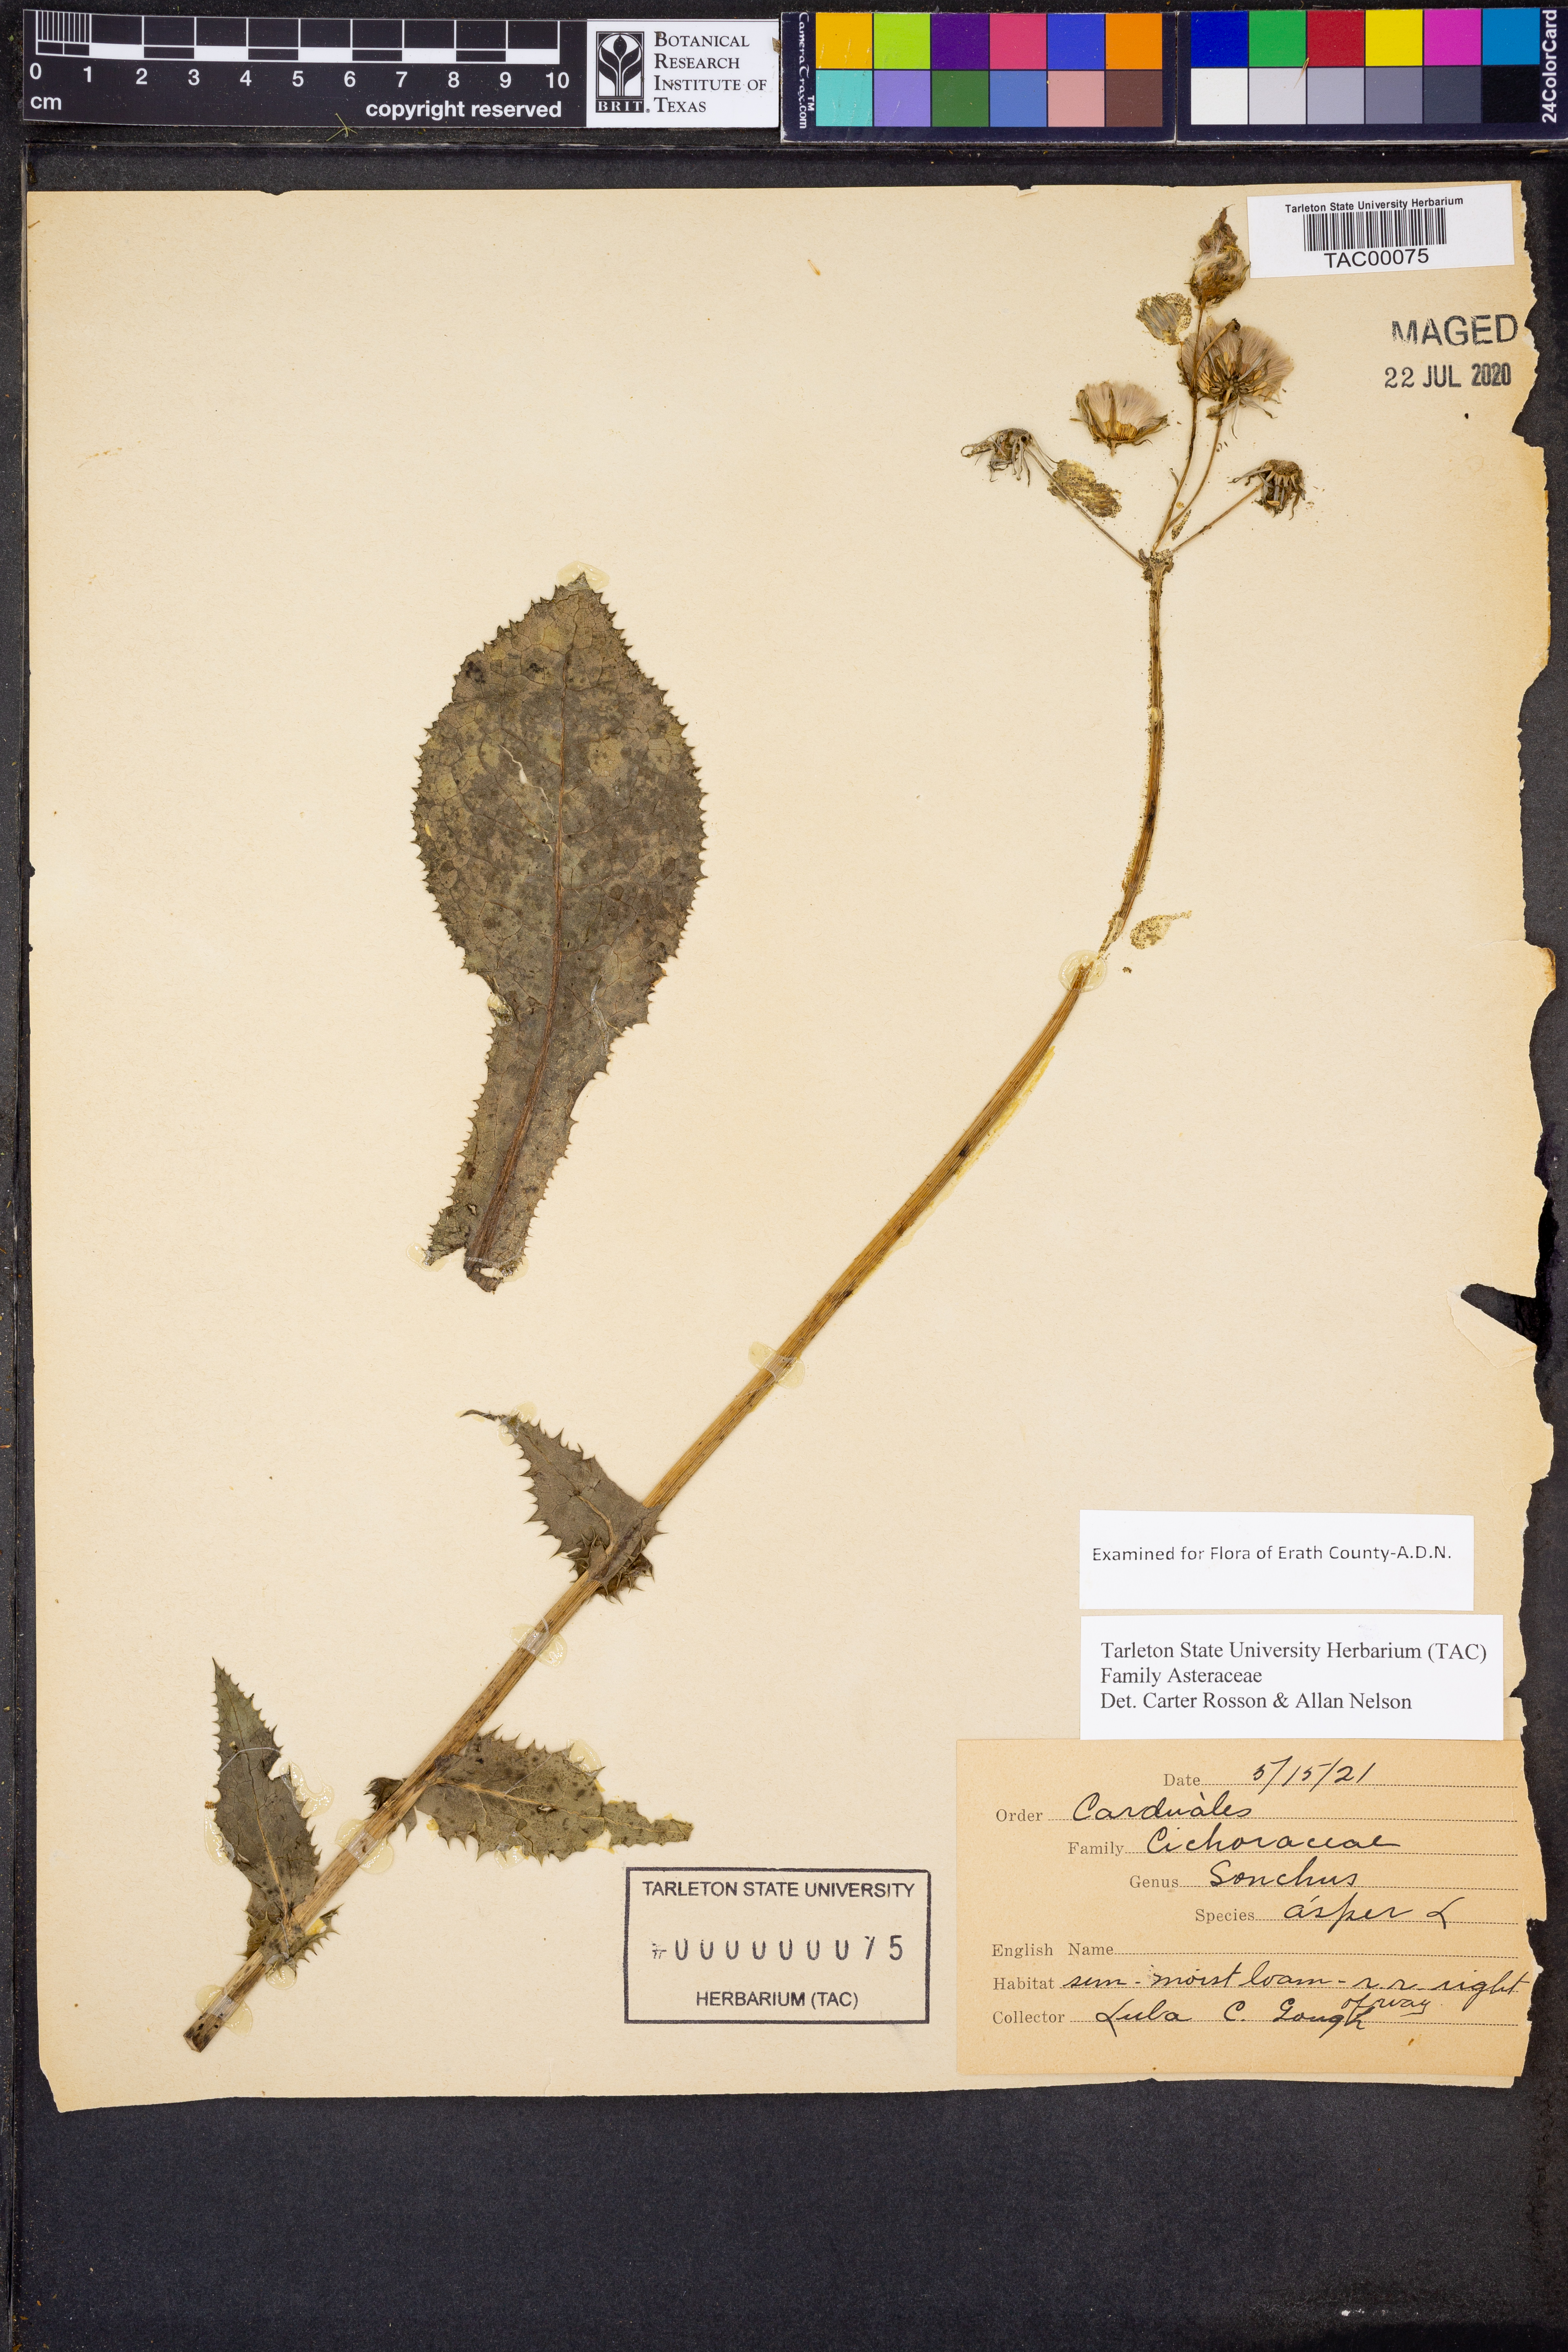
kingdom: Plantae
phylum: Tracheophyta
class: Magnoliopsida
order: Asterales
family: Asteraceae
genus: Sonchus
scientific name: Sonchus asper
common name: Prickly sow-thistle
